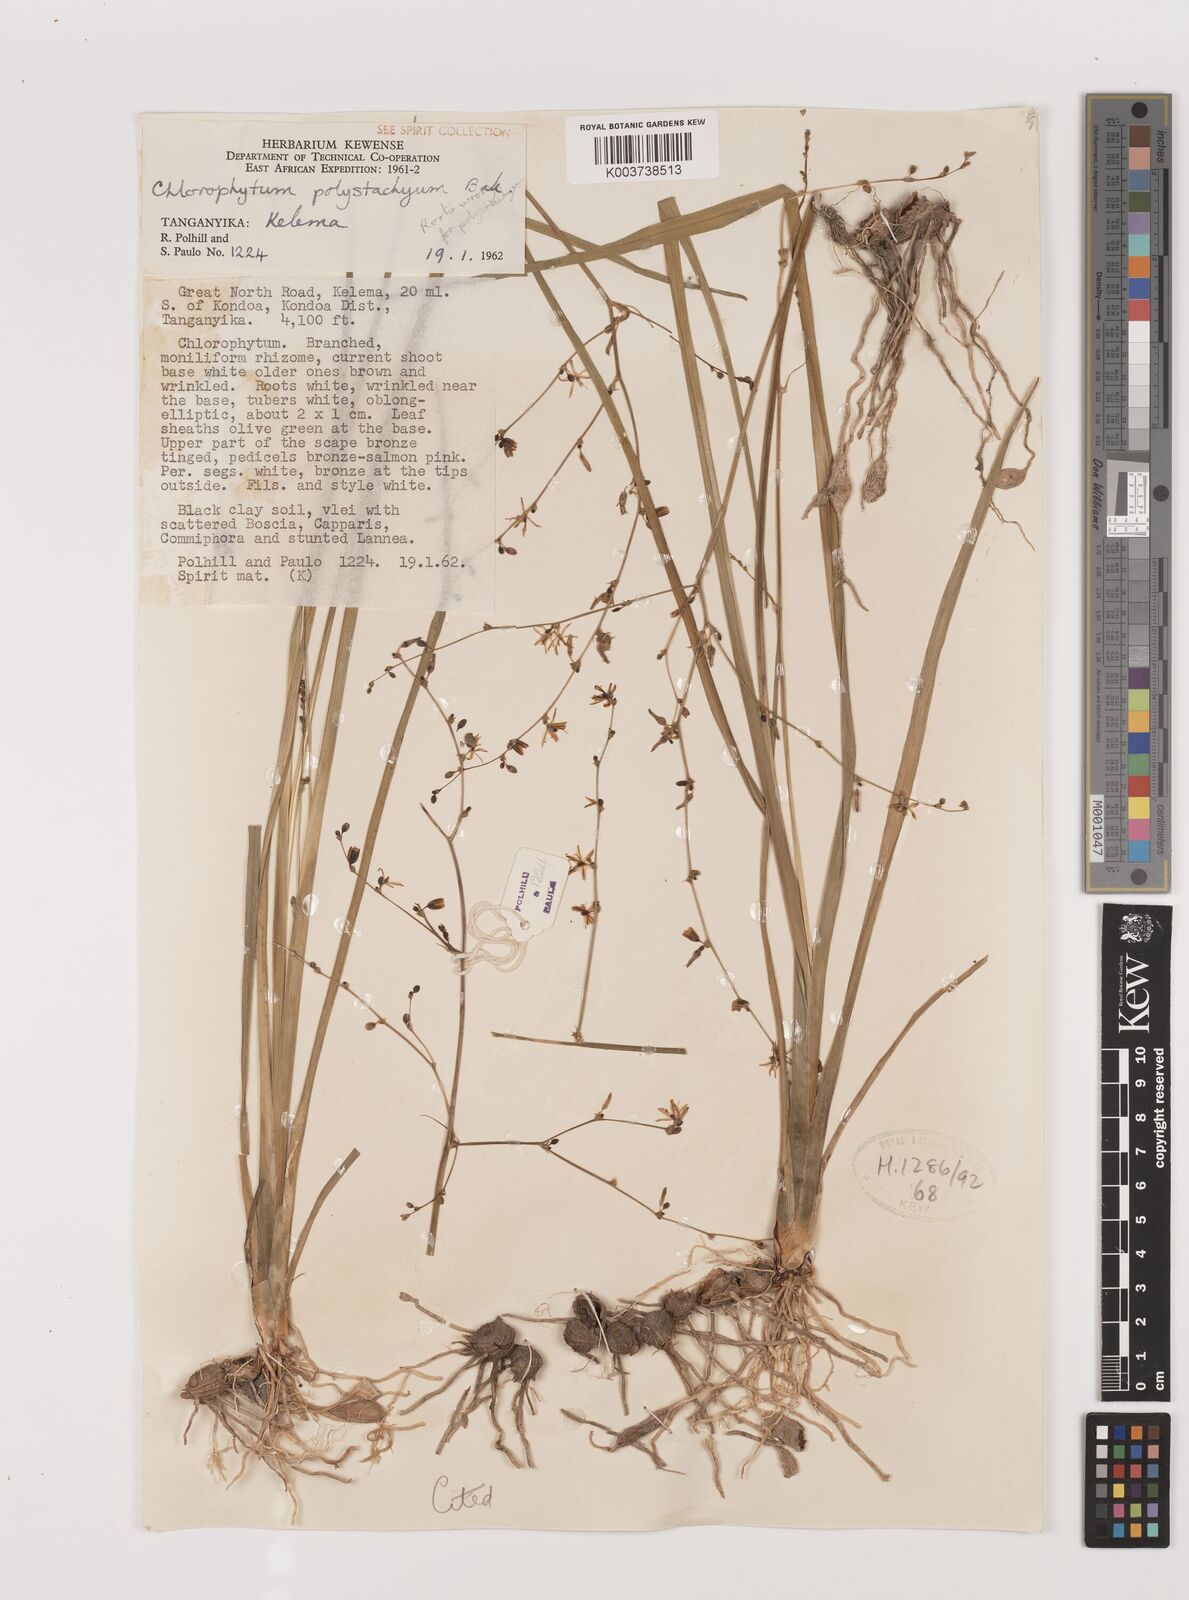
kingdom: Plantae
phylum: Tracheophyta
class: Liliopsida
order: Asparagales
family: Asparagaceae
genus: Chlorophytum
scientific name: Chlorophytum polystachys
